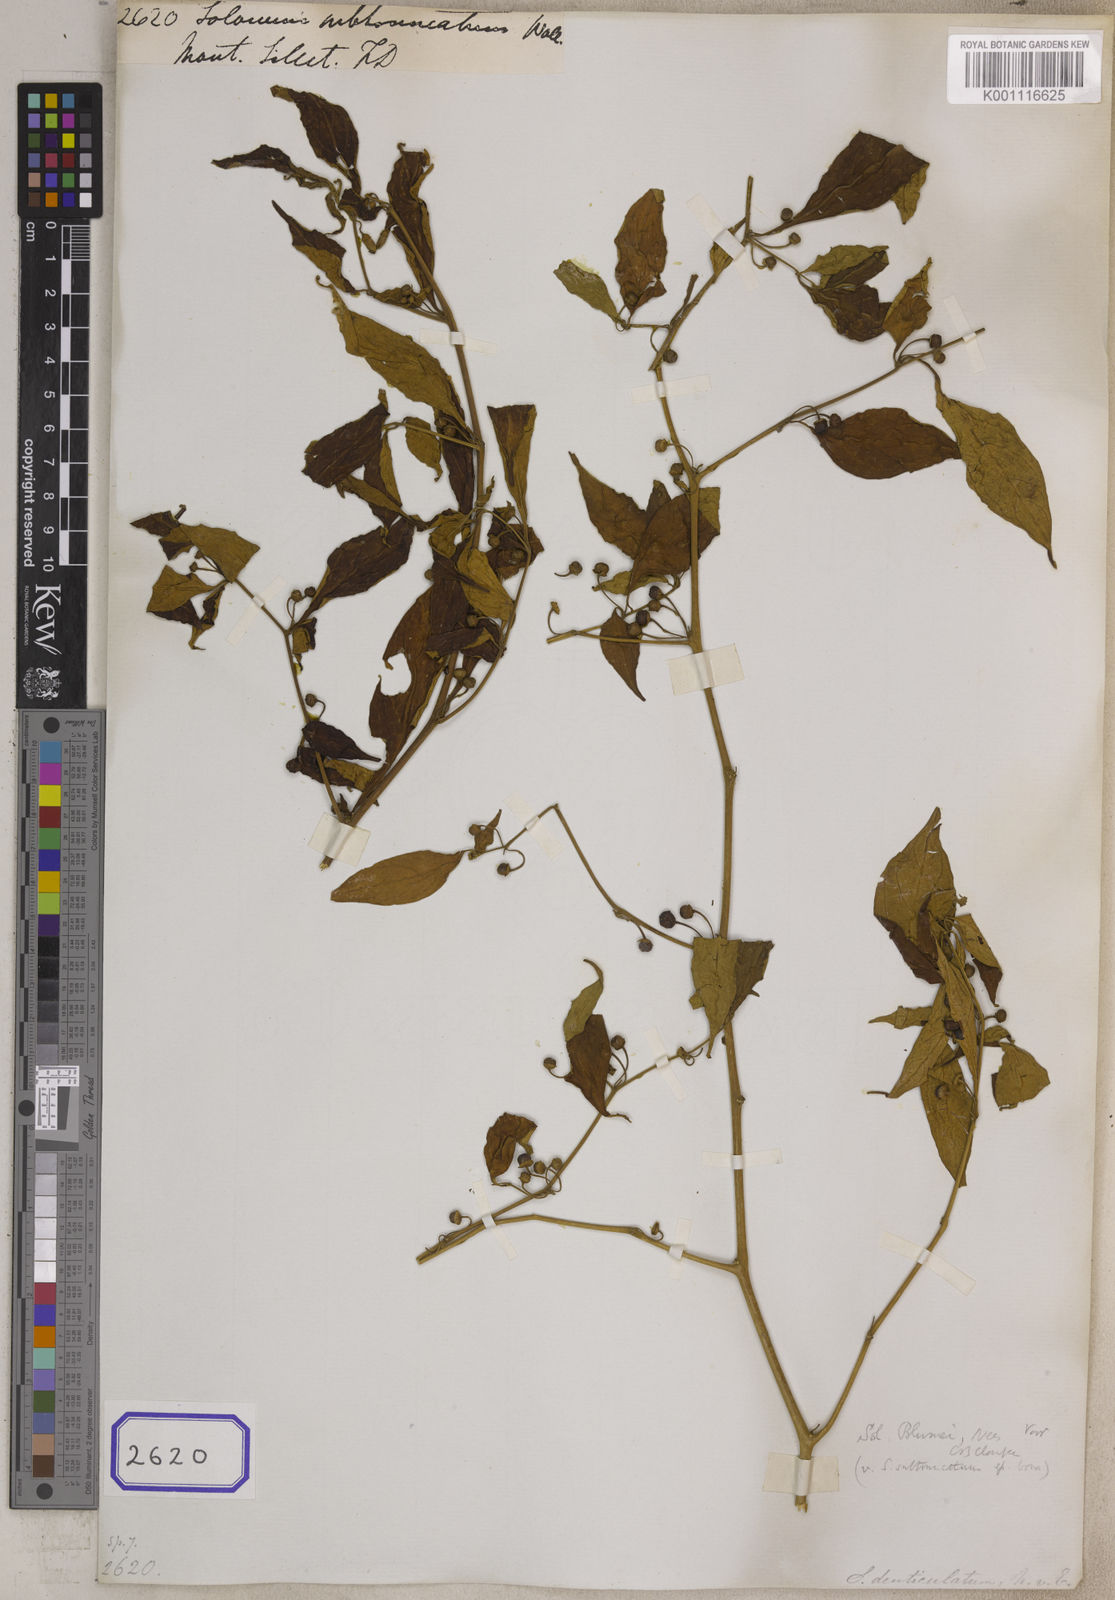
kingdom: Plantae
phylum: Tracheophyta
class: Magnoliopsida
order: Solanales
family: Solanaceae
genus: Lycianthes
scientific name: Lycianthes neesiana
